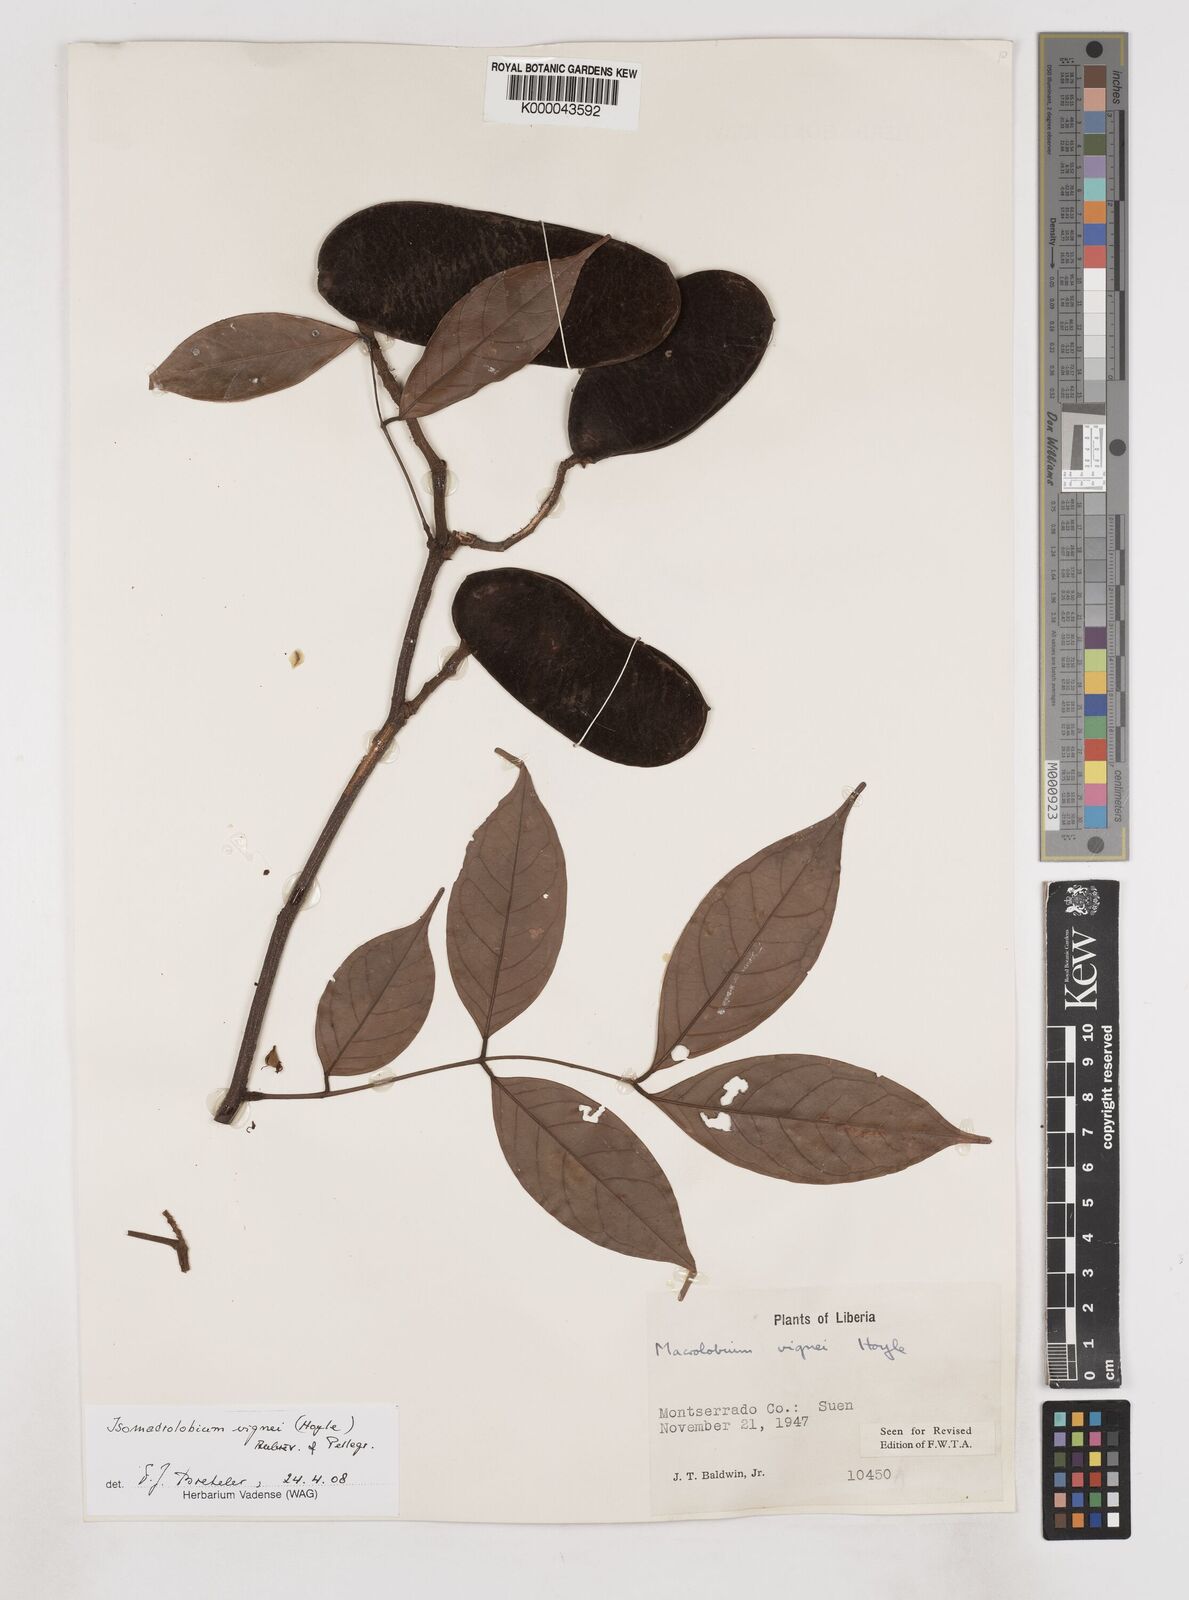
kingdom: Plantae
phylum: Tracheophyta
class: Magnoliopsida
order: Fabales
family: Fabaceae
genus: Englerodendron
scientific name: Englerodendron vignei
